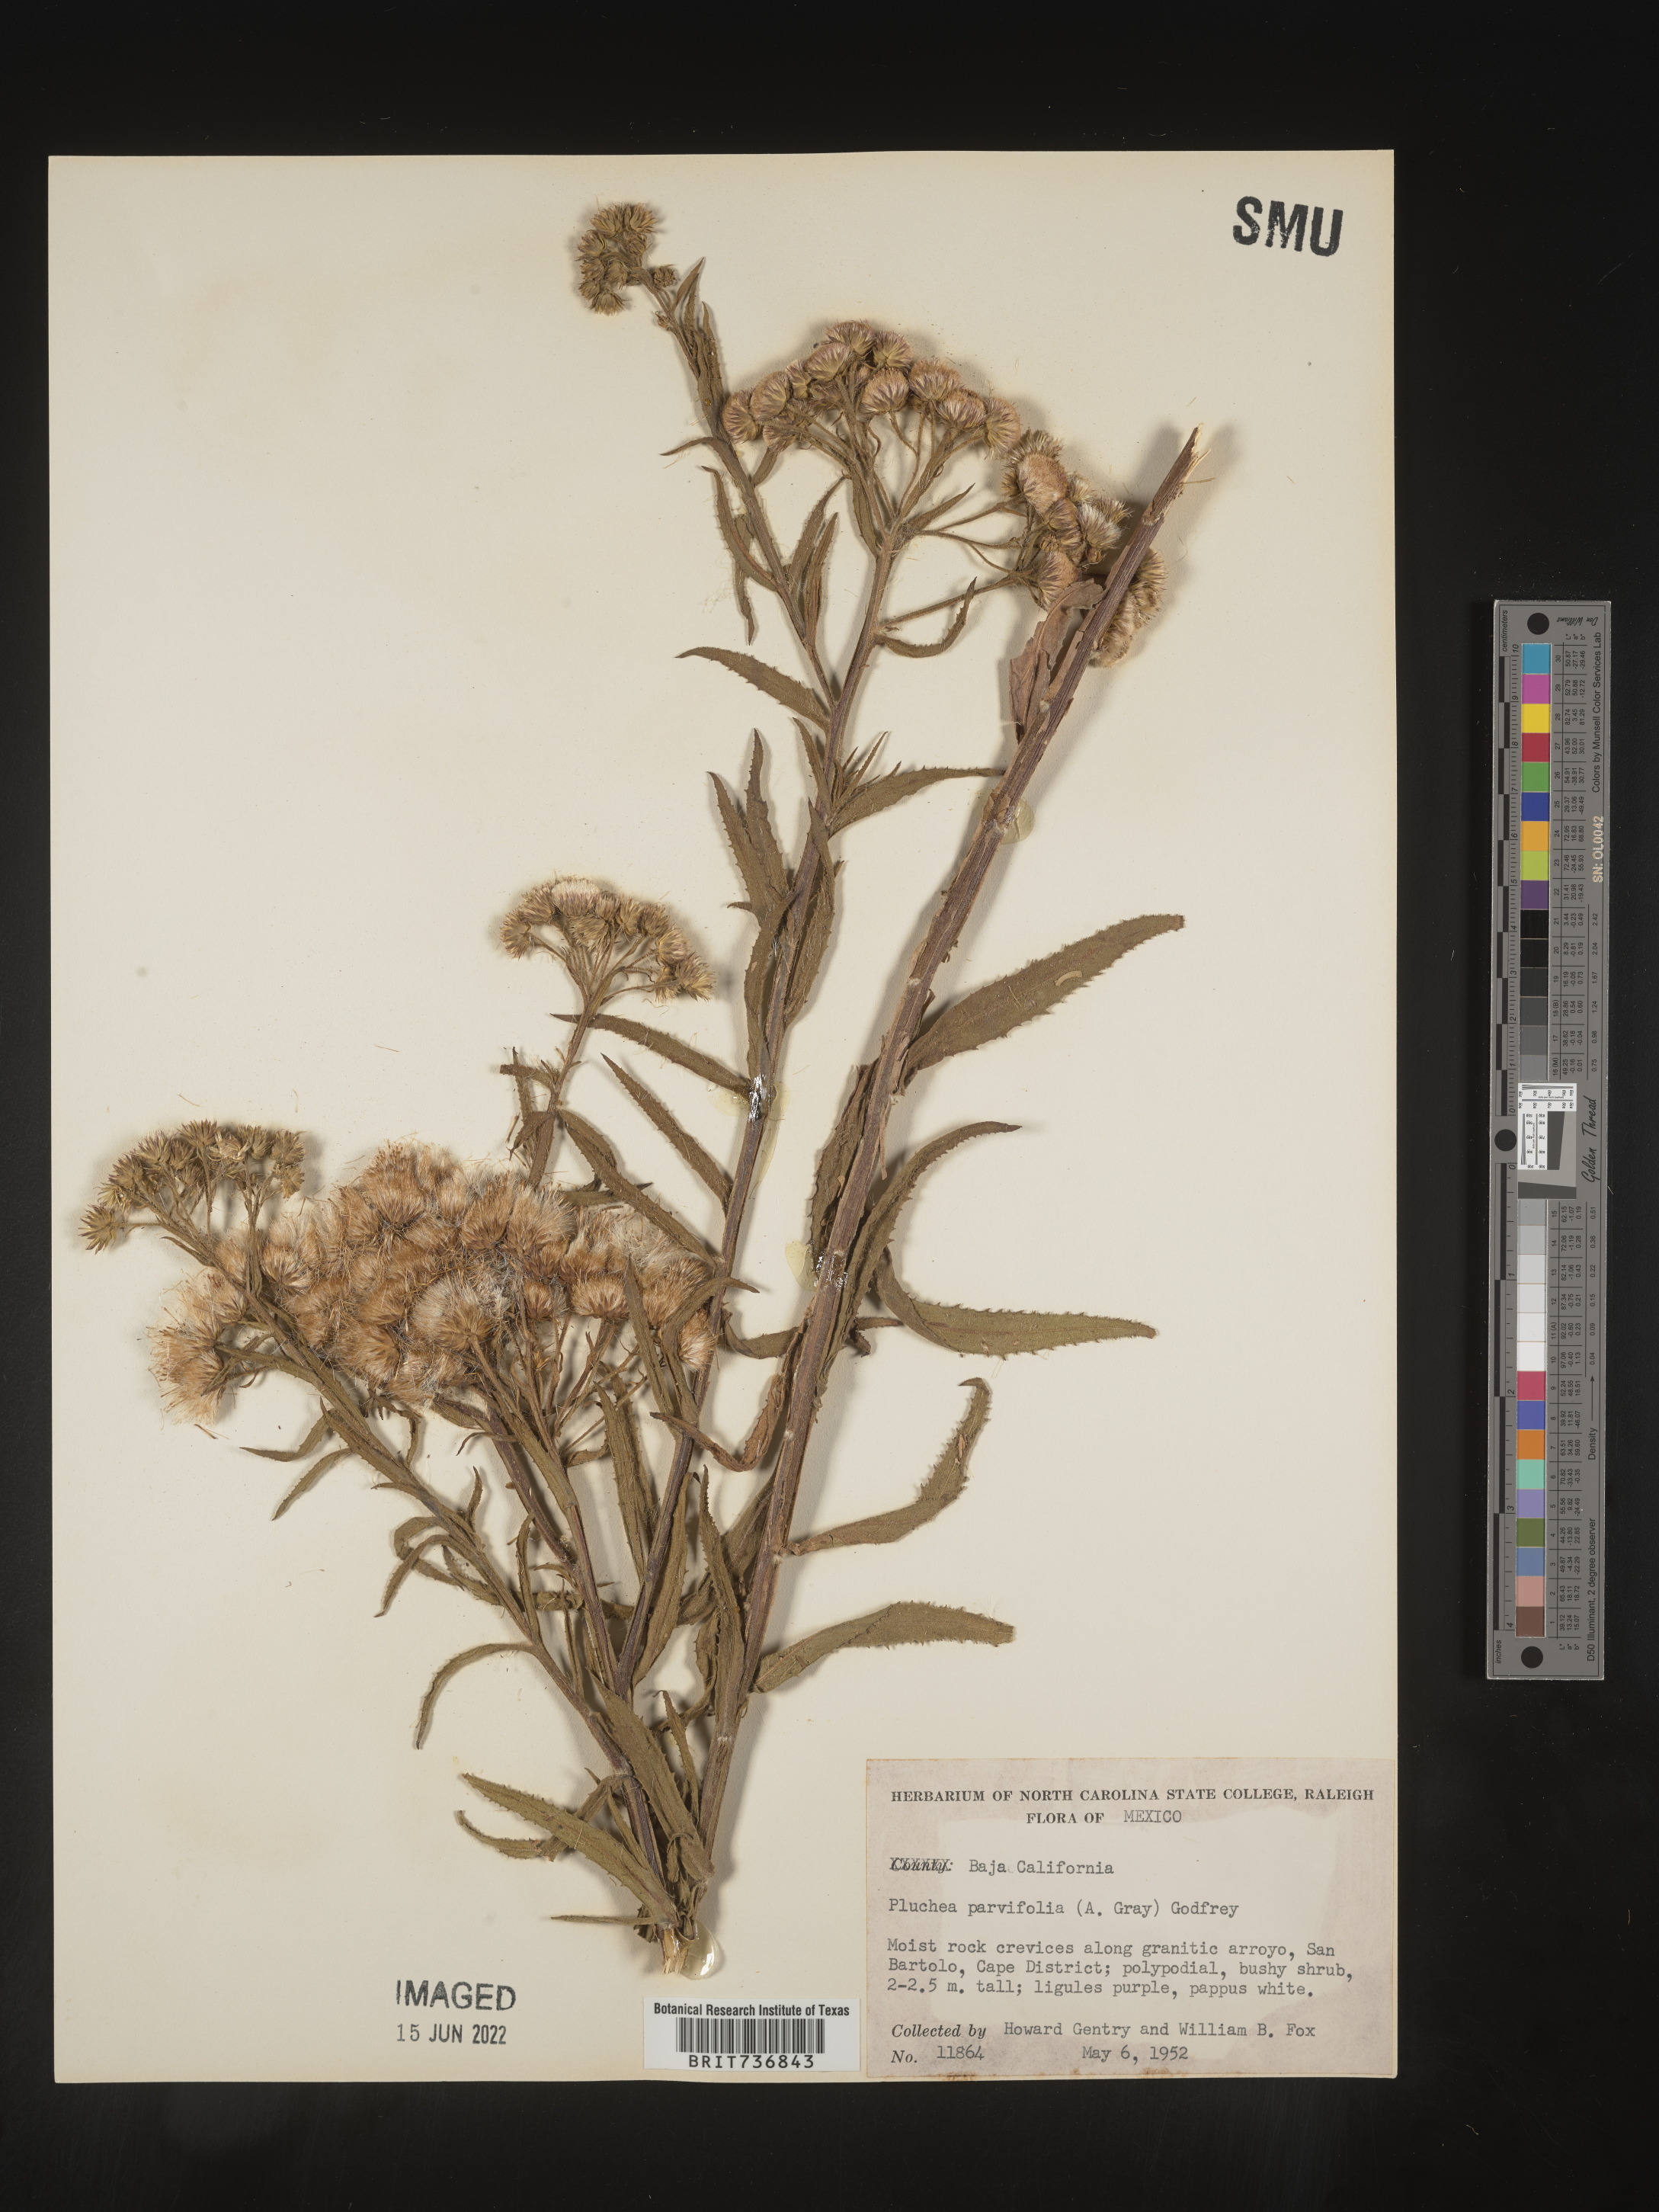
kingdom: Plantae
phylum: Tracheophyta
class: Magnoliopsida
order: Asterales
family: Asteraceae
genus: Pluchea
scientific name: Pluchea
